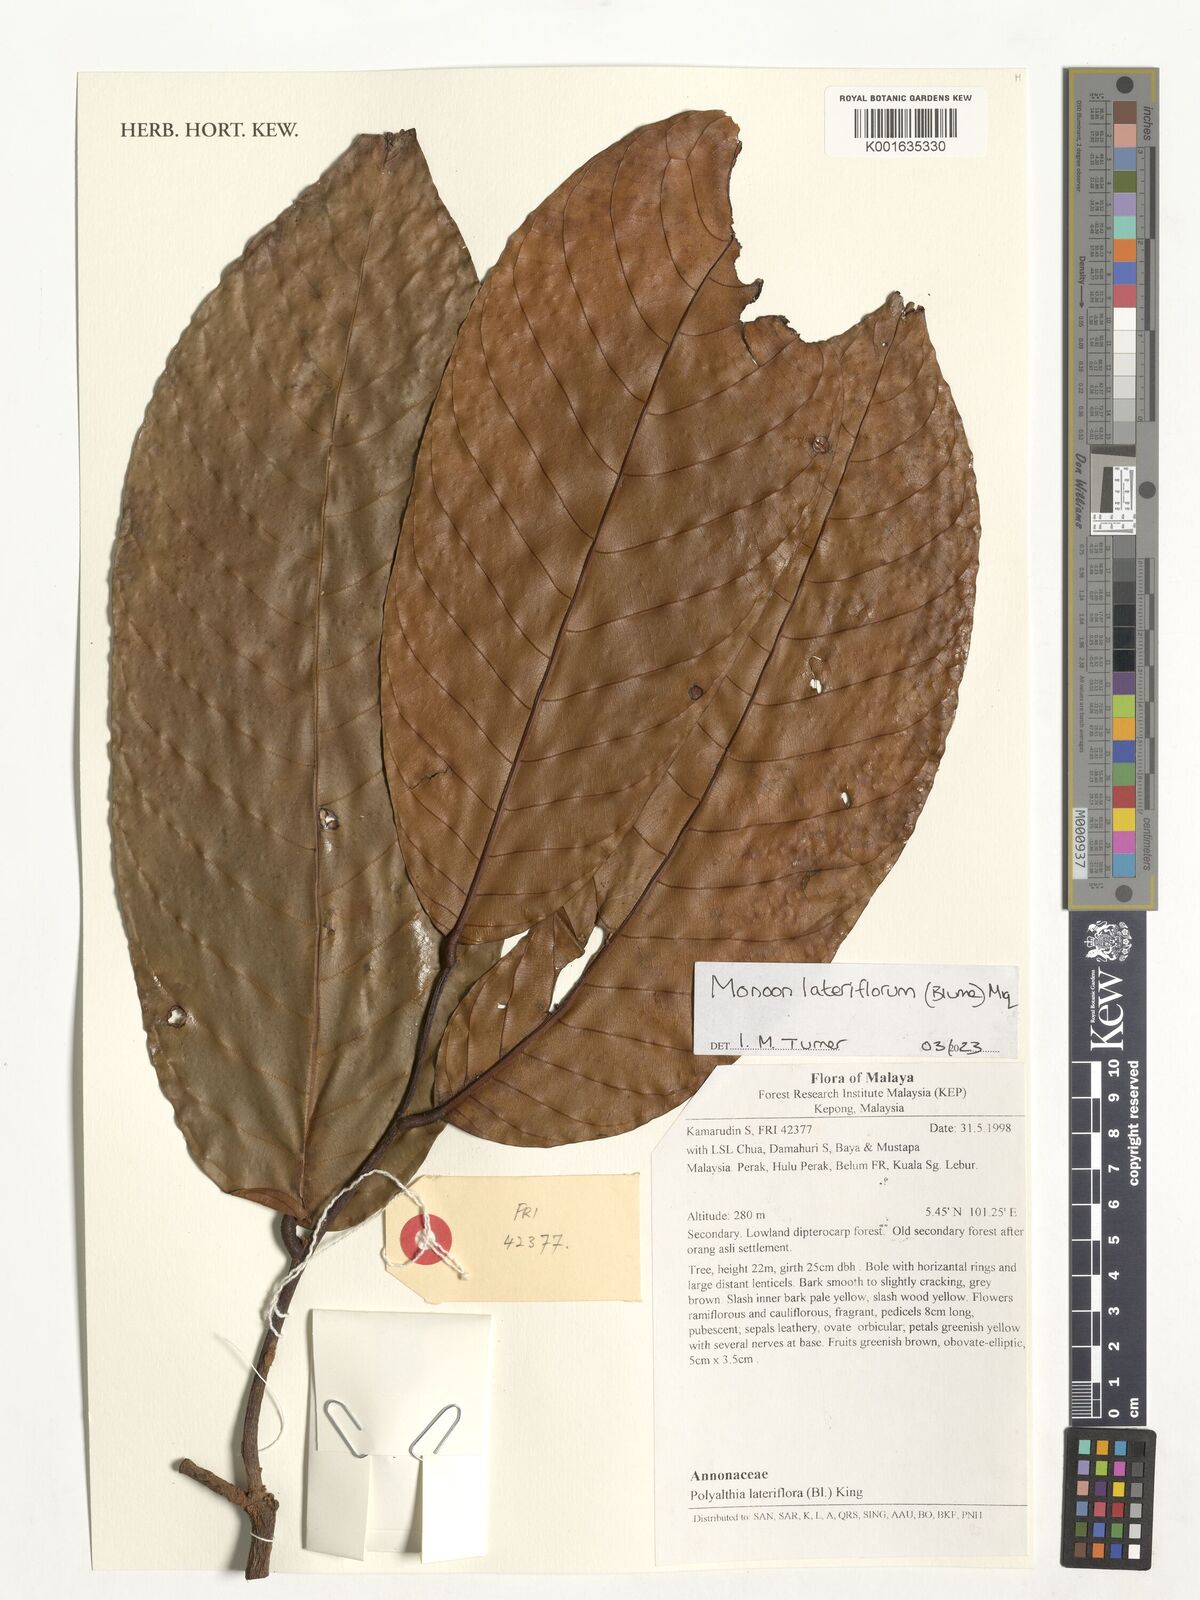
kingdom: Plantae
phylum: Tracheophyta
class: Magnoliopsida
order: Magnoliales
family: Annonaceae
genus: Polyalthia
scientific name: Polyalthia lateriflora
